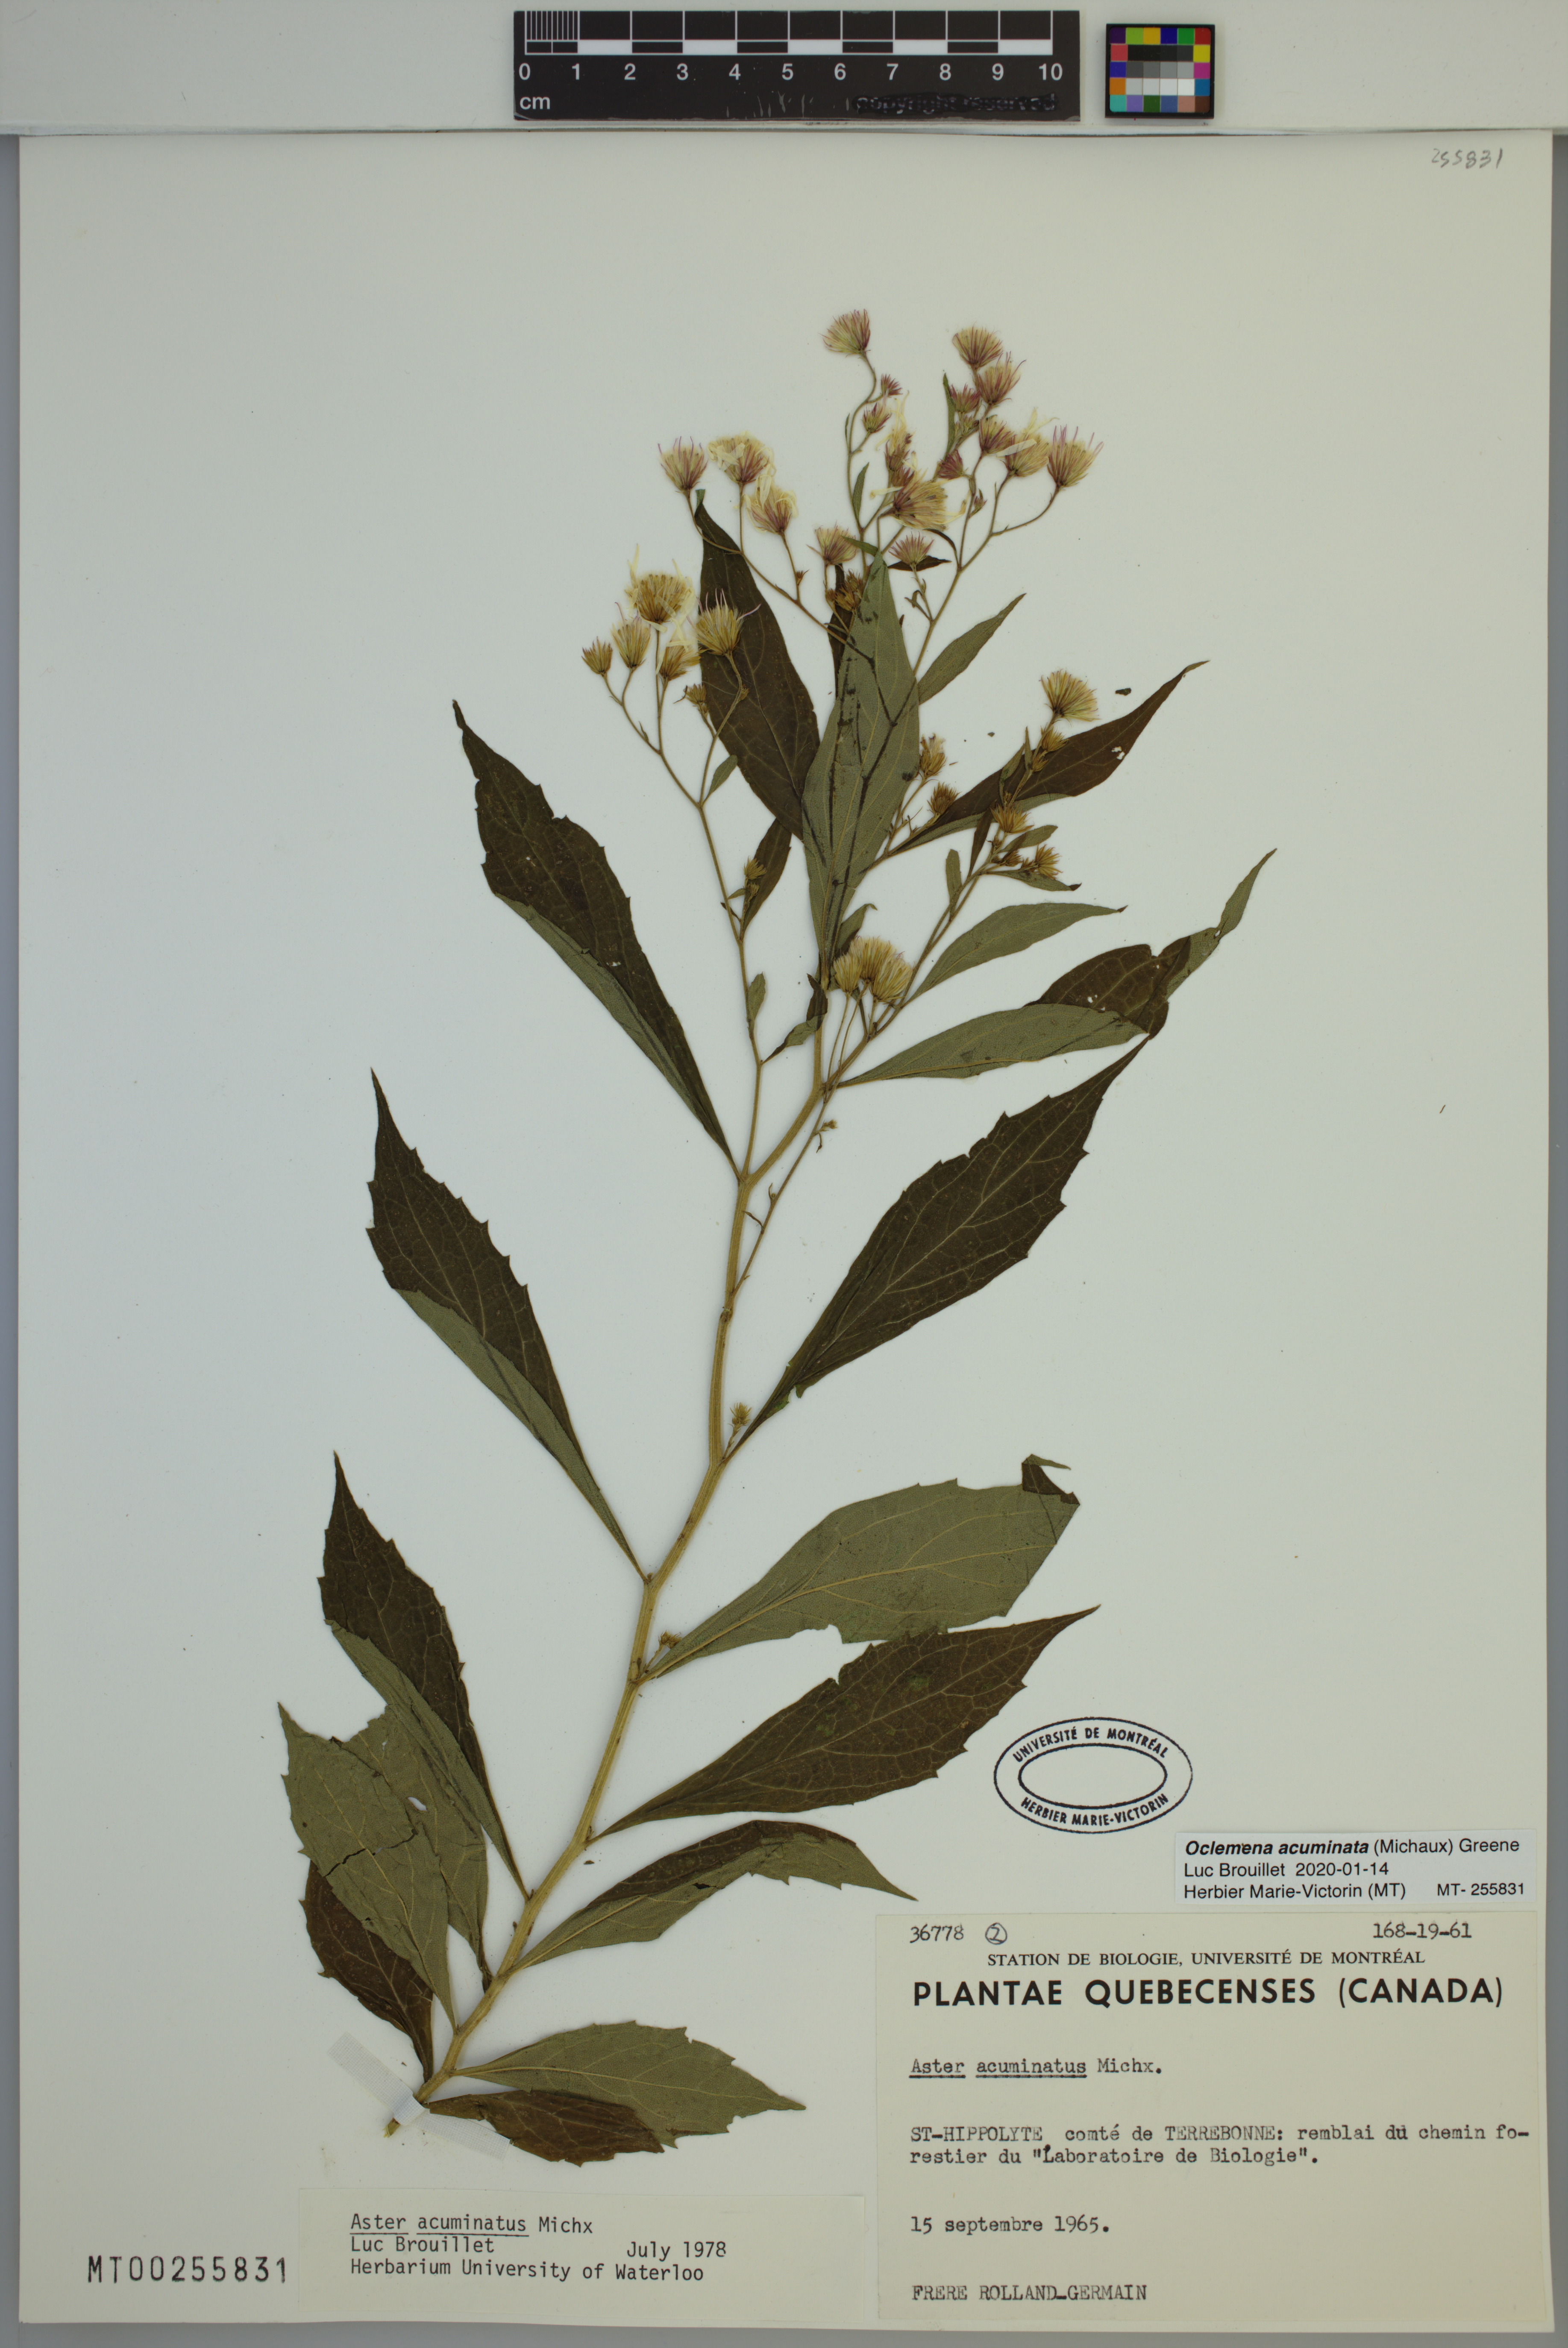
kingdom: Plantae
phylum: Tracheophyta
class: Magnoliopsida
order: Asterales
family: Asteraceae
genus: Oclemena
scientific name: Oclemena acuminata
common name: Mountain aster
